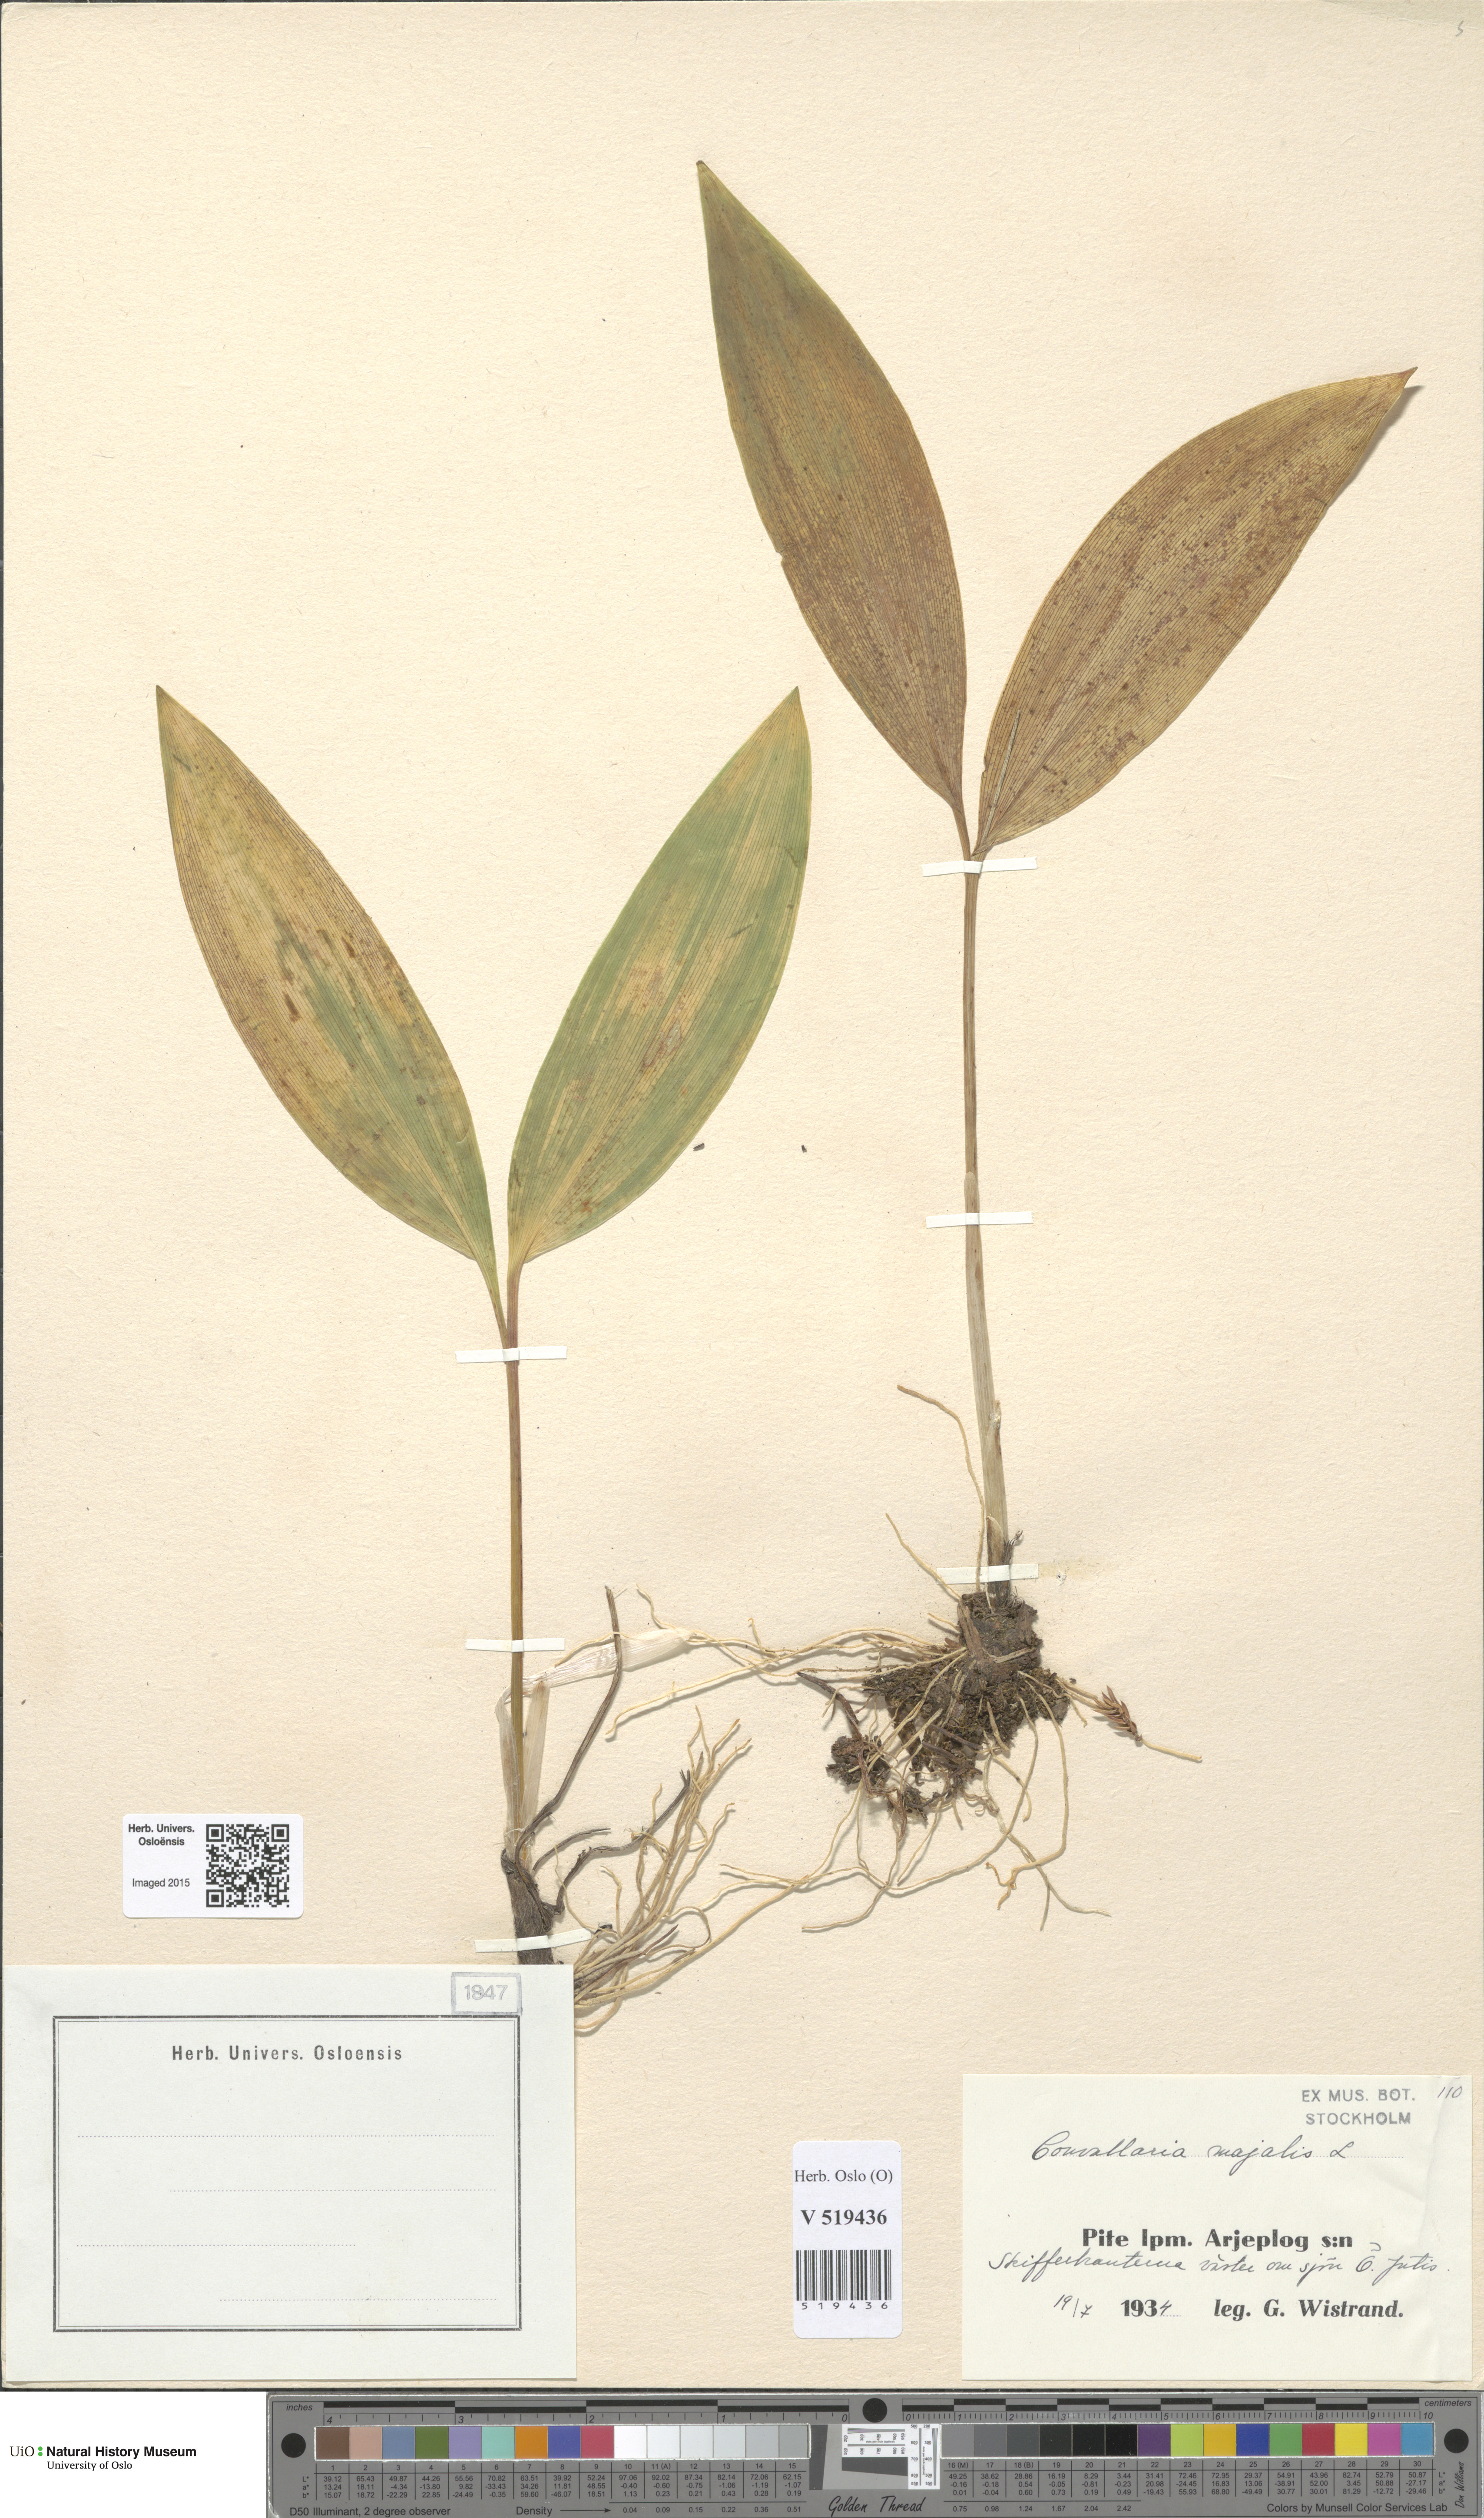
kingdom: Plantae
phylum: Tracheophyta
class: Liliopsida
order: Asparagales
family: Asparagaceae
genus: Convallaria
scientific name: Convallaria majalis
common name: Lily-of-the-valley
